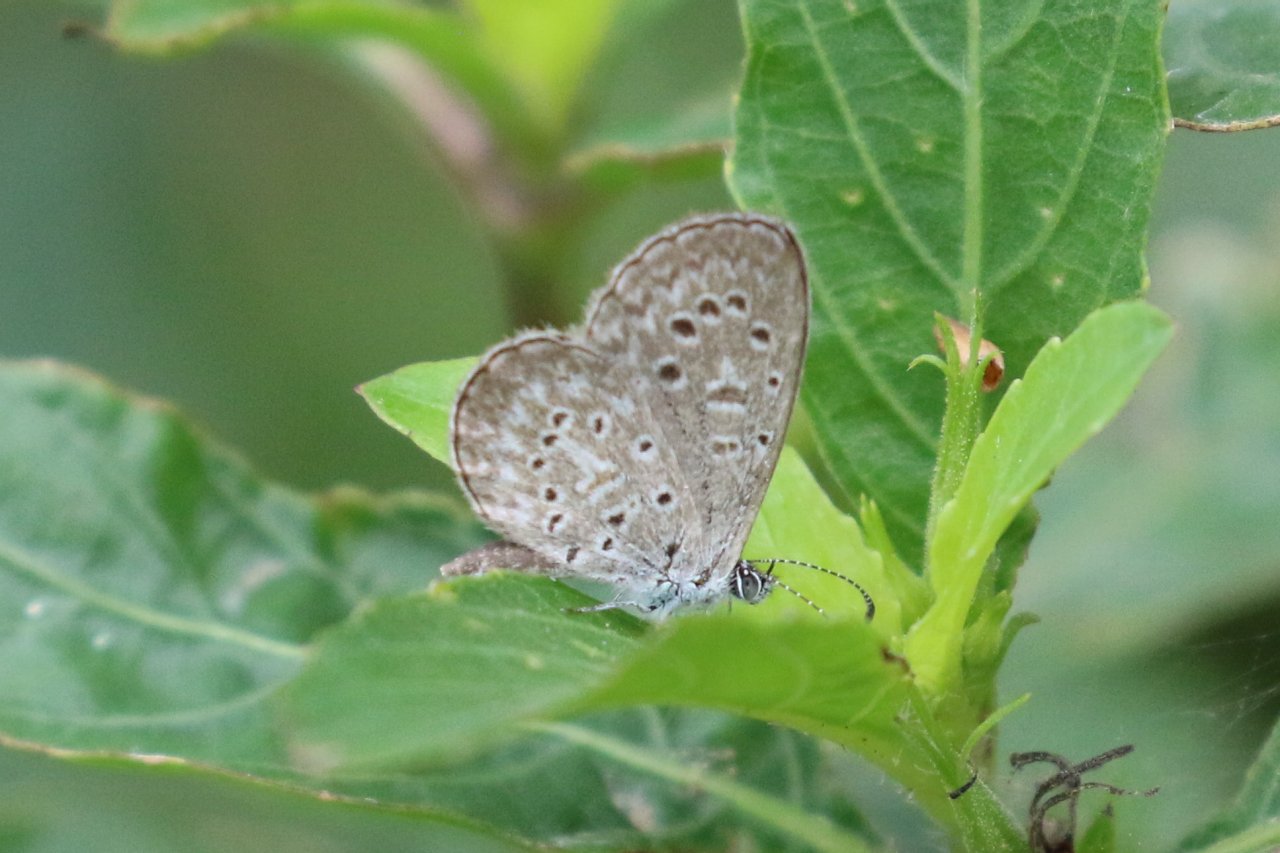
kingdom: Animalia
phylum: Arthropoda
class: Insecta
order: Lepidoptera
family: Lycaenidae
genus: Lycaena
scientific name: Lycaena cyna
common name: Cyna Blue
